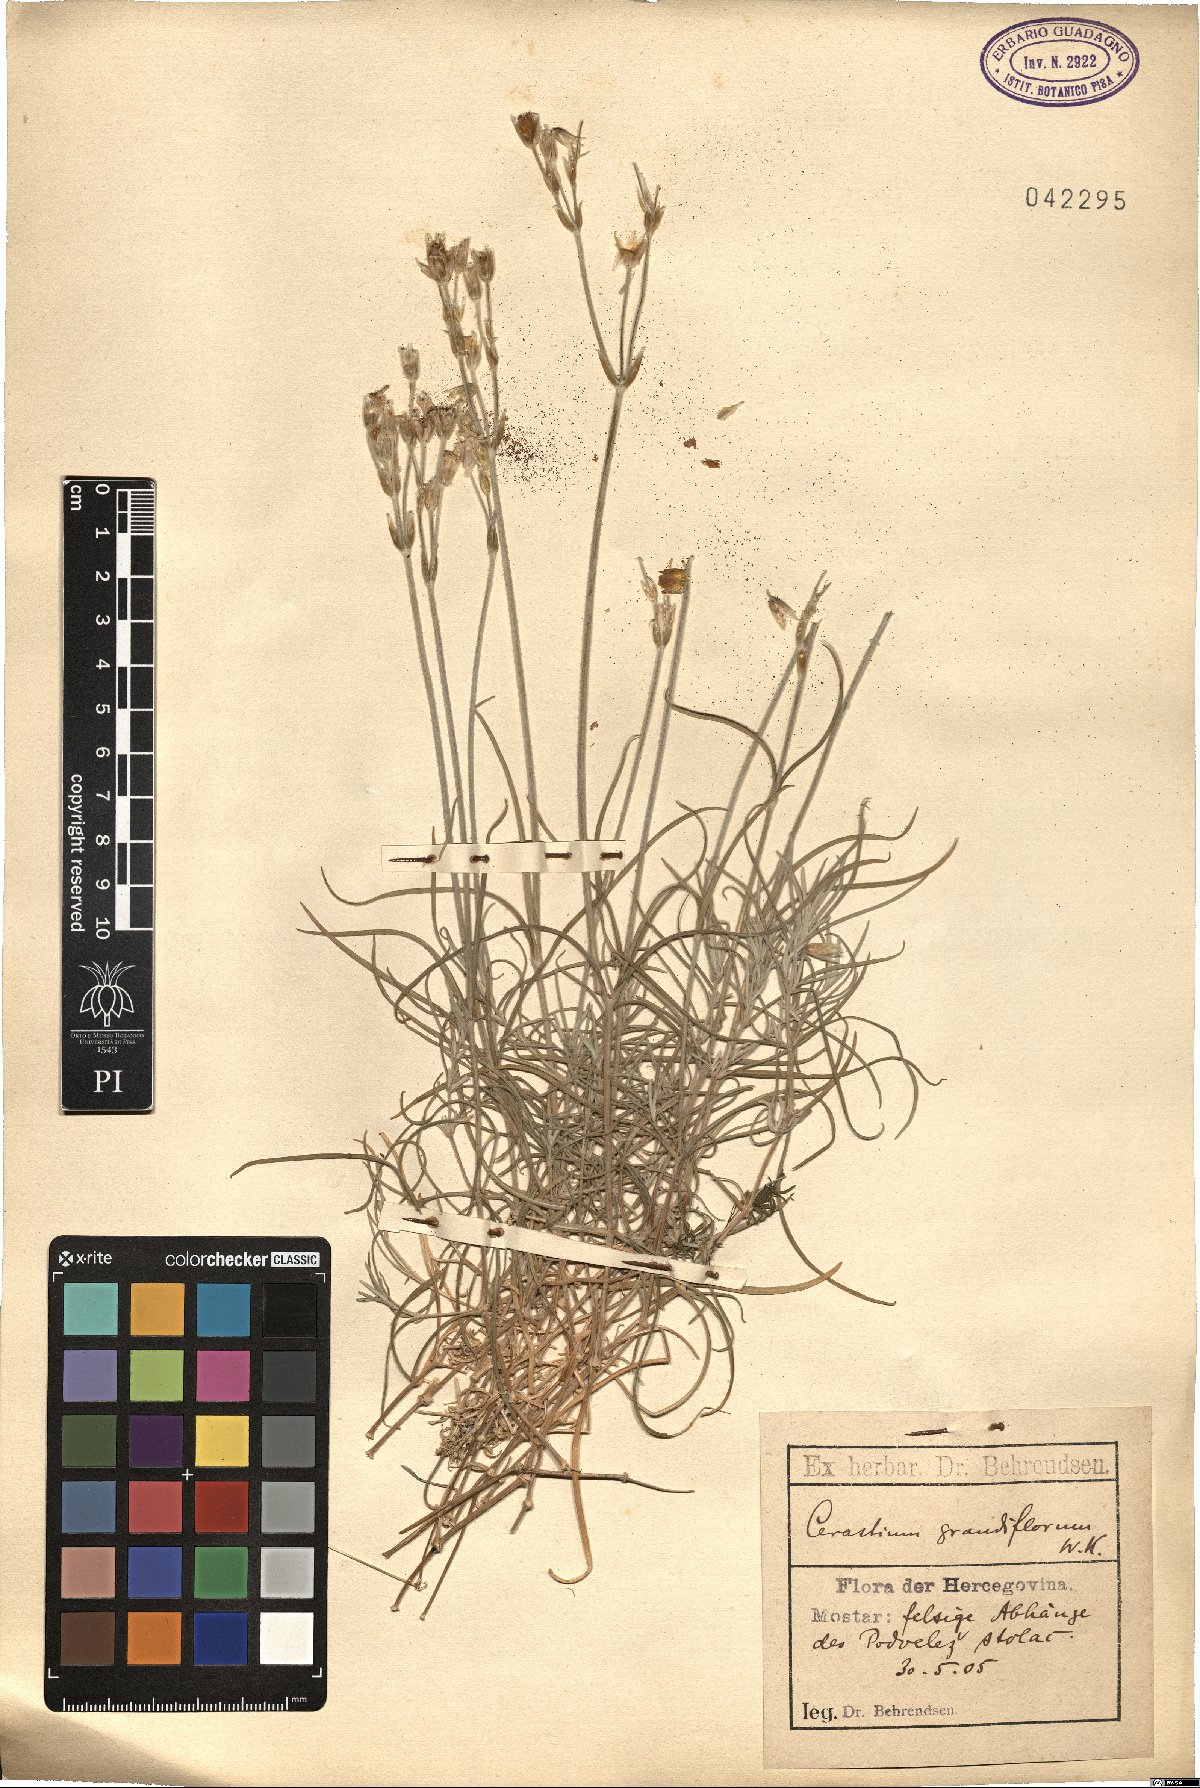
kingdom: Plantae
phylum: Tracheophyta
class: Magnoliopsida
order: Caryophyllales
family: Caryophyllaceae
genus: Cerastium
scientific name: Cerastium grandiflorum
